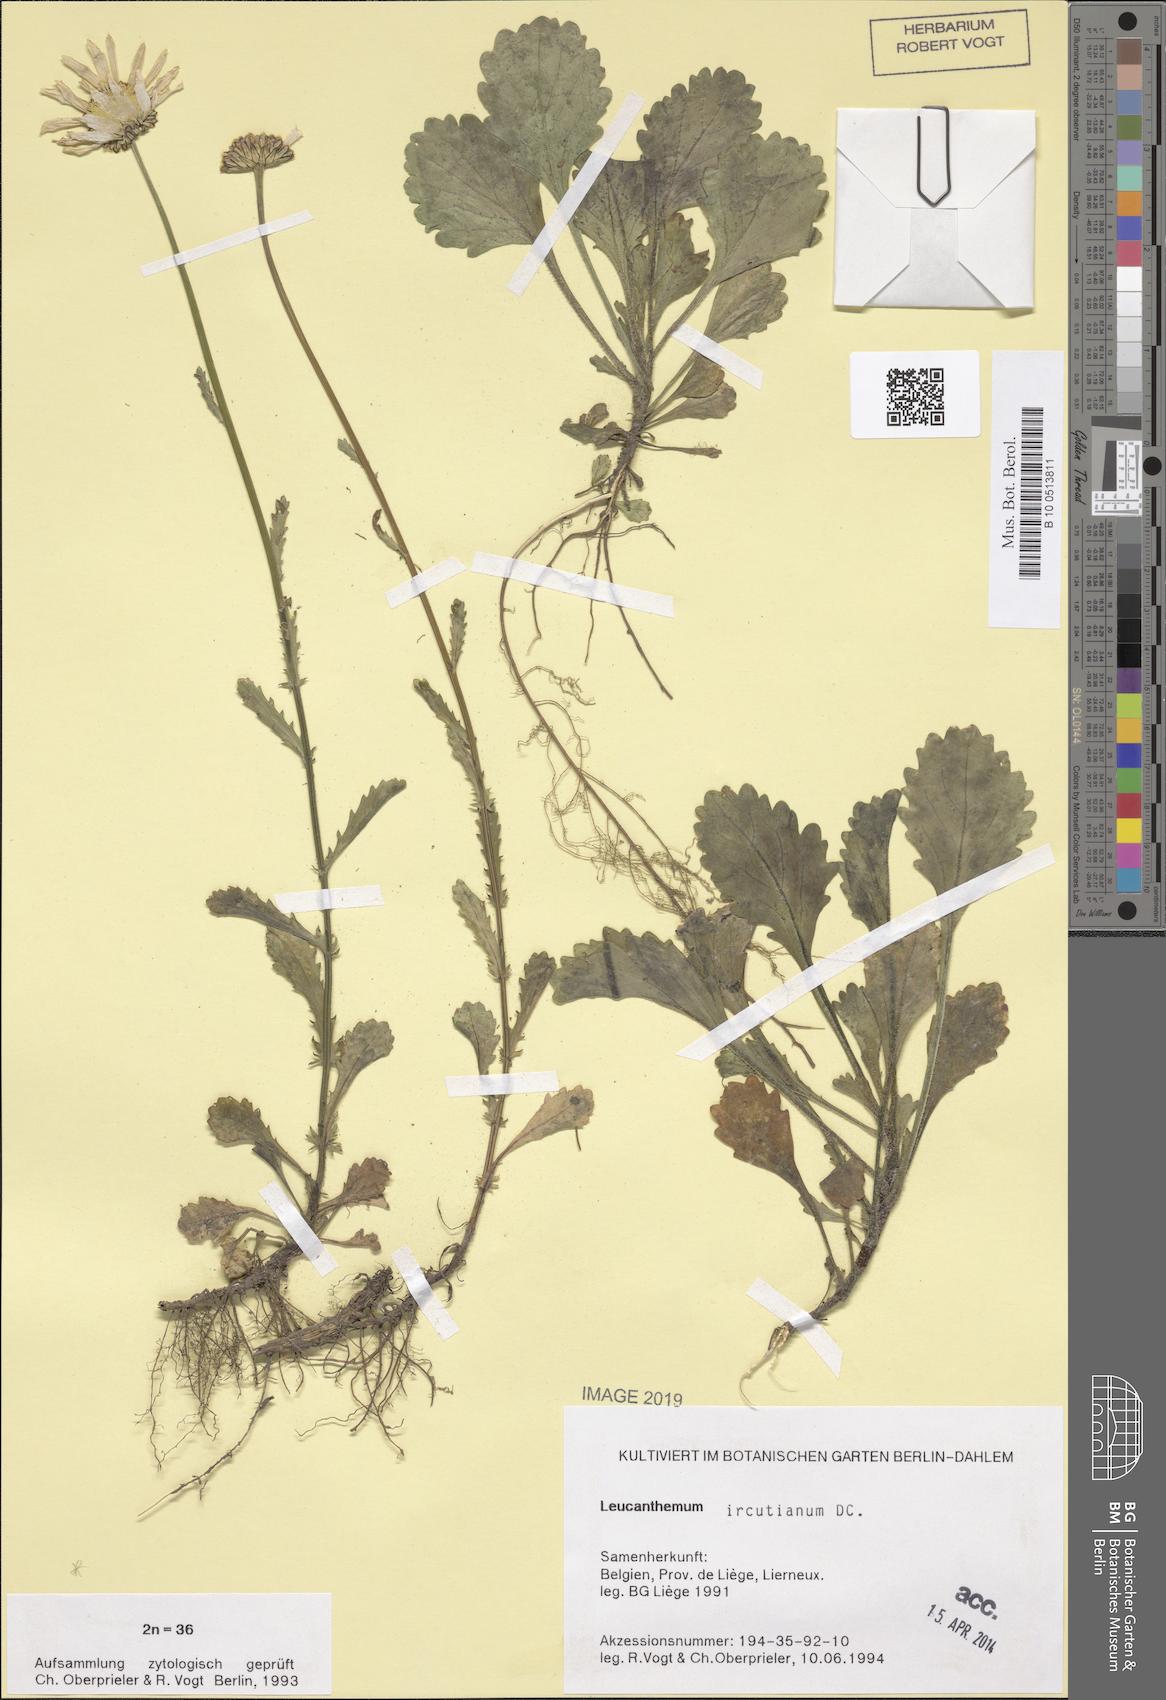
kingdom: Plantae
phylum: Tracheophyta
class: Magnoliopsida
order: Asterales
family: Asteraceae
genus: Leucanthemum
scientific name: Leucanthemum ircutianum
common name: Daisy
